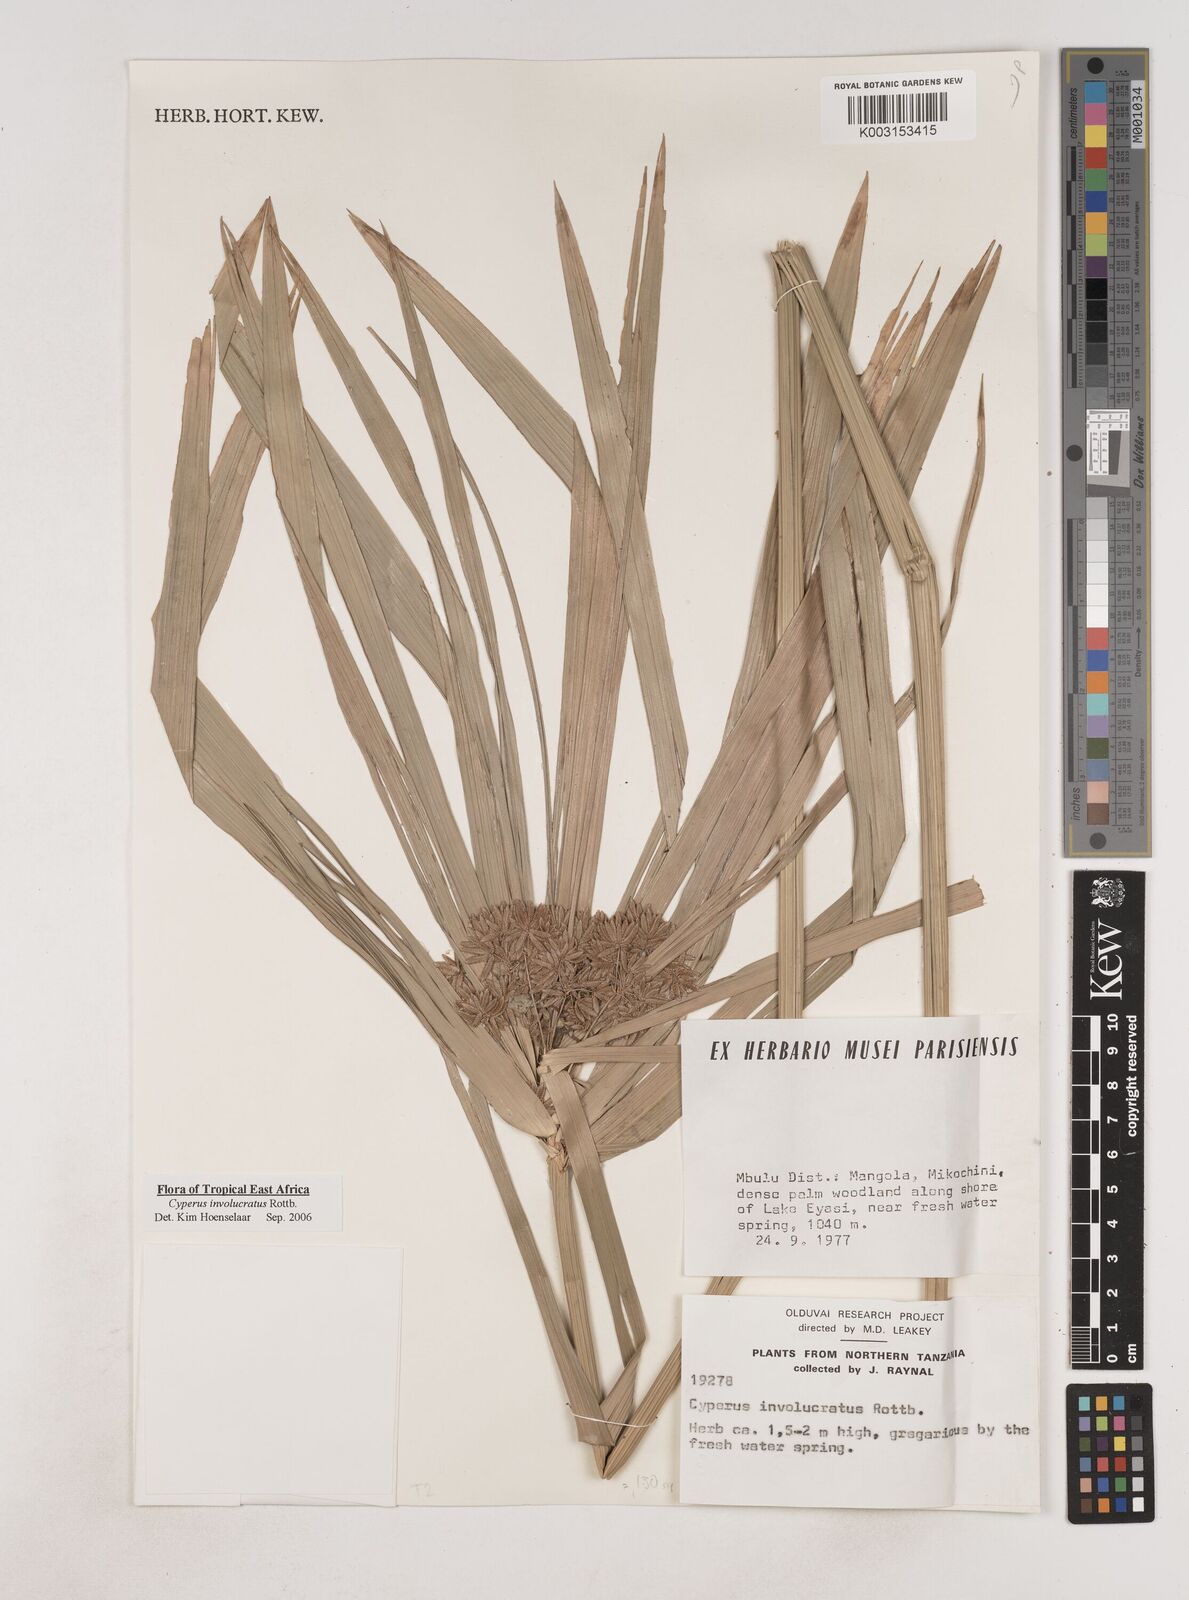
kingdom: Plantae
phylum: Tracheophyta
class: Liliopsida
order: Poales
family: Cyperaceae
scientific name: Cyperaceae
